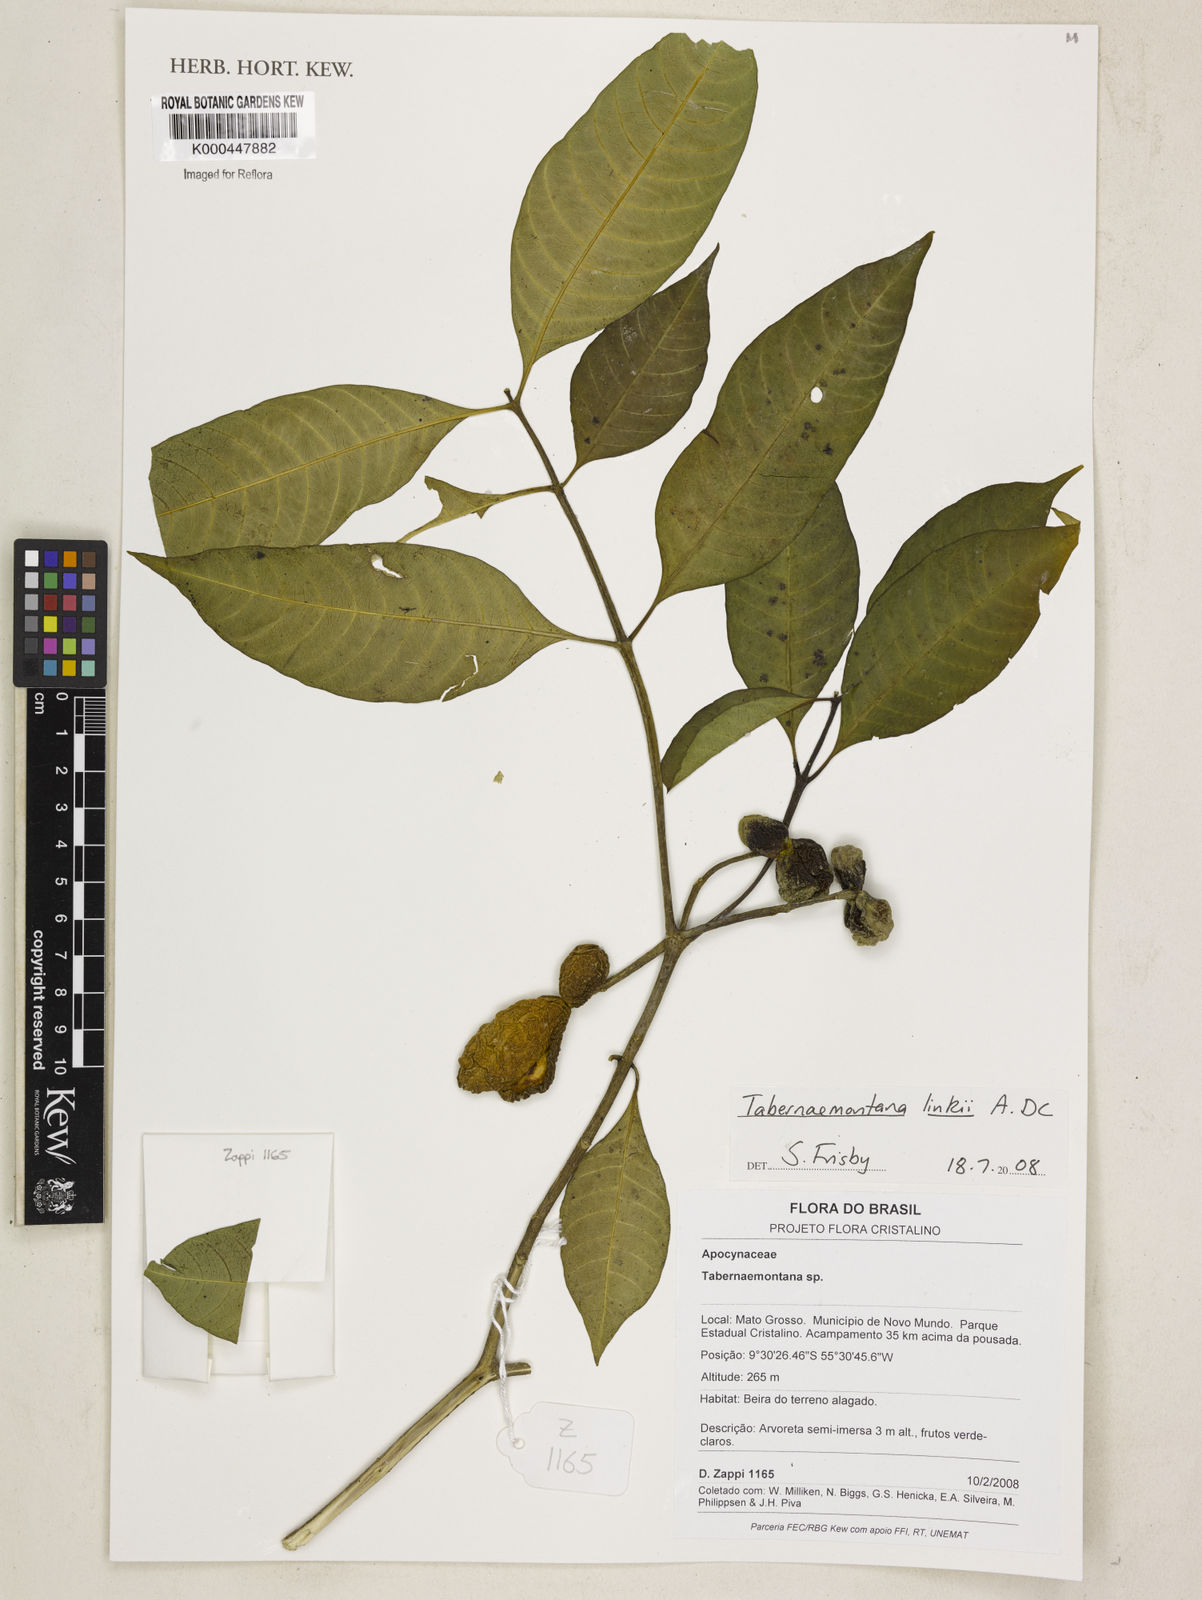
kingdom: Plantae
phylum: Tracheophyta
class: Magnoliopsida
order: Gentianales
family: Apocynaceae
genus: Tabernaemontana
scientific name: Tabernaemontana linkii
